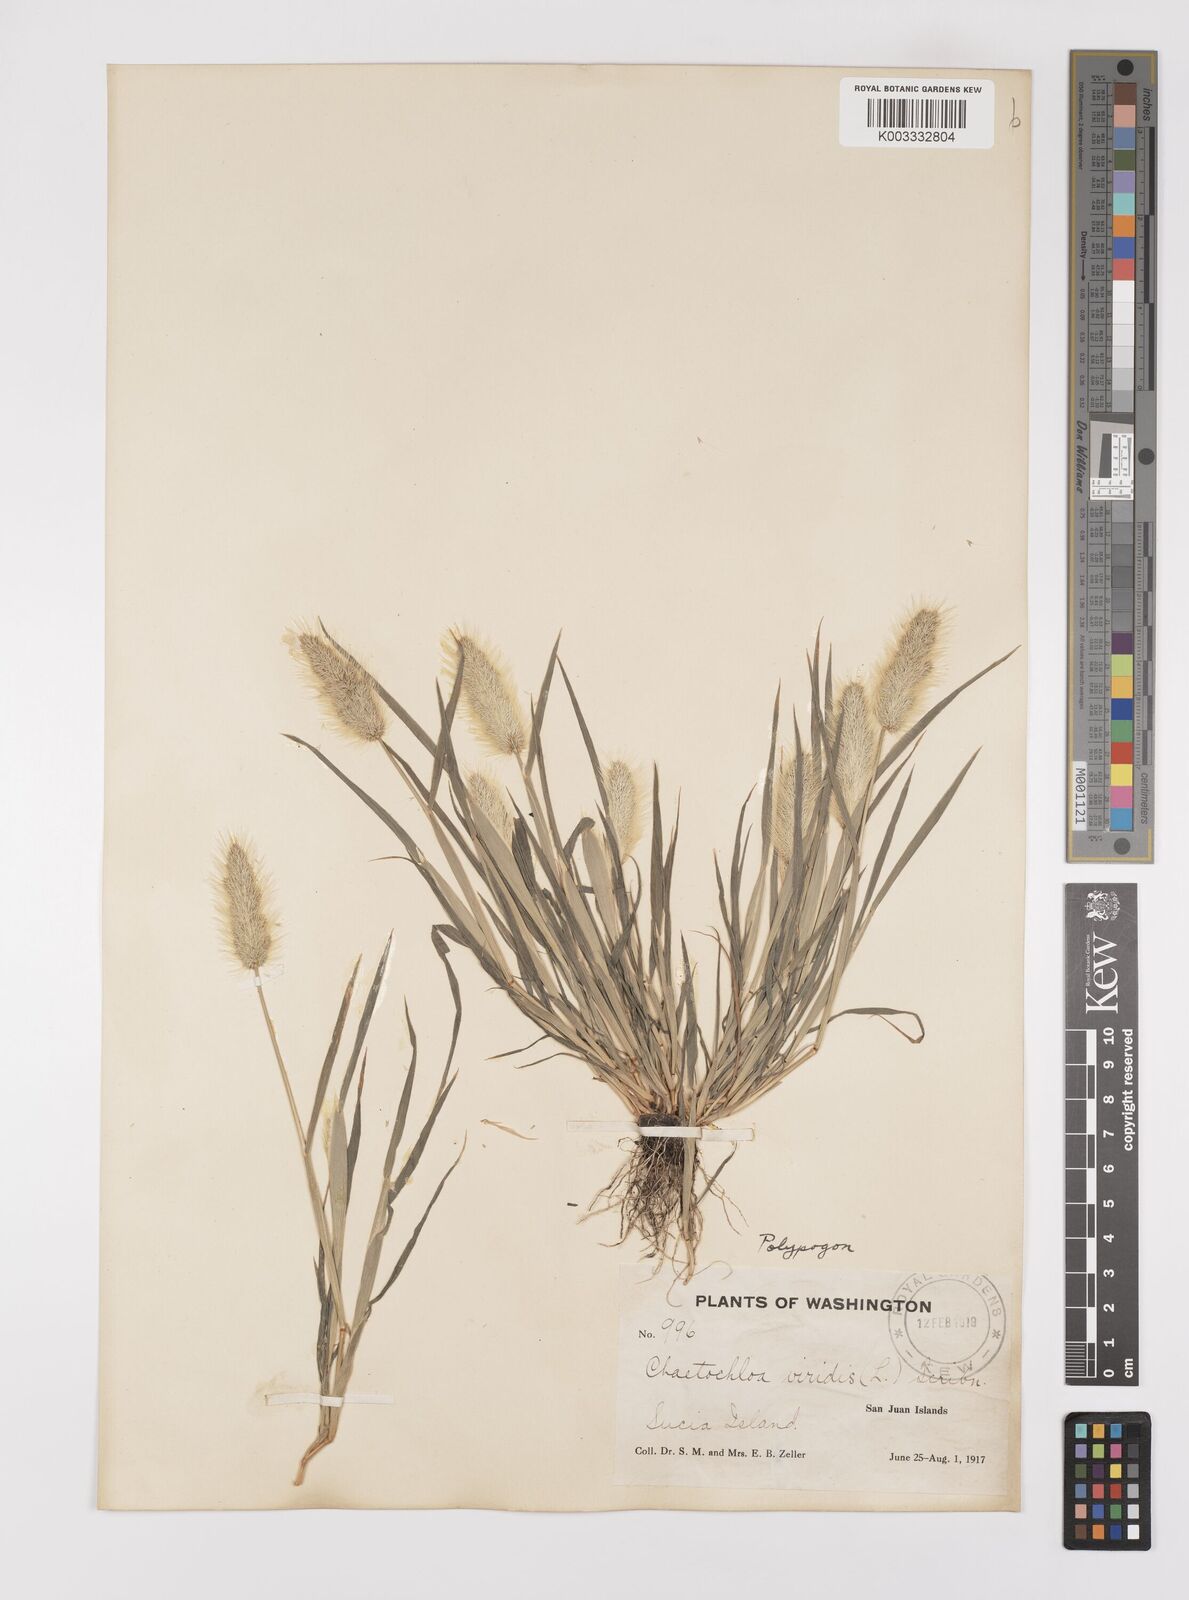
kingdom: Plantae
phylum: Tracheophyta
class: Liliopsida
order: Poales
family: Poaceae
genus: Polypogon
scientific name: Polypogon monspeliensis
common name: Annual rabbitsfoot grass
